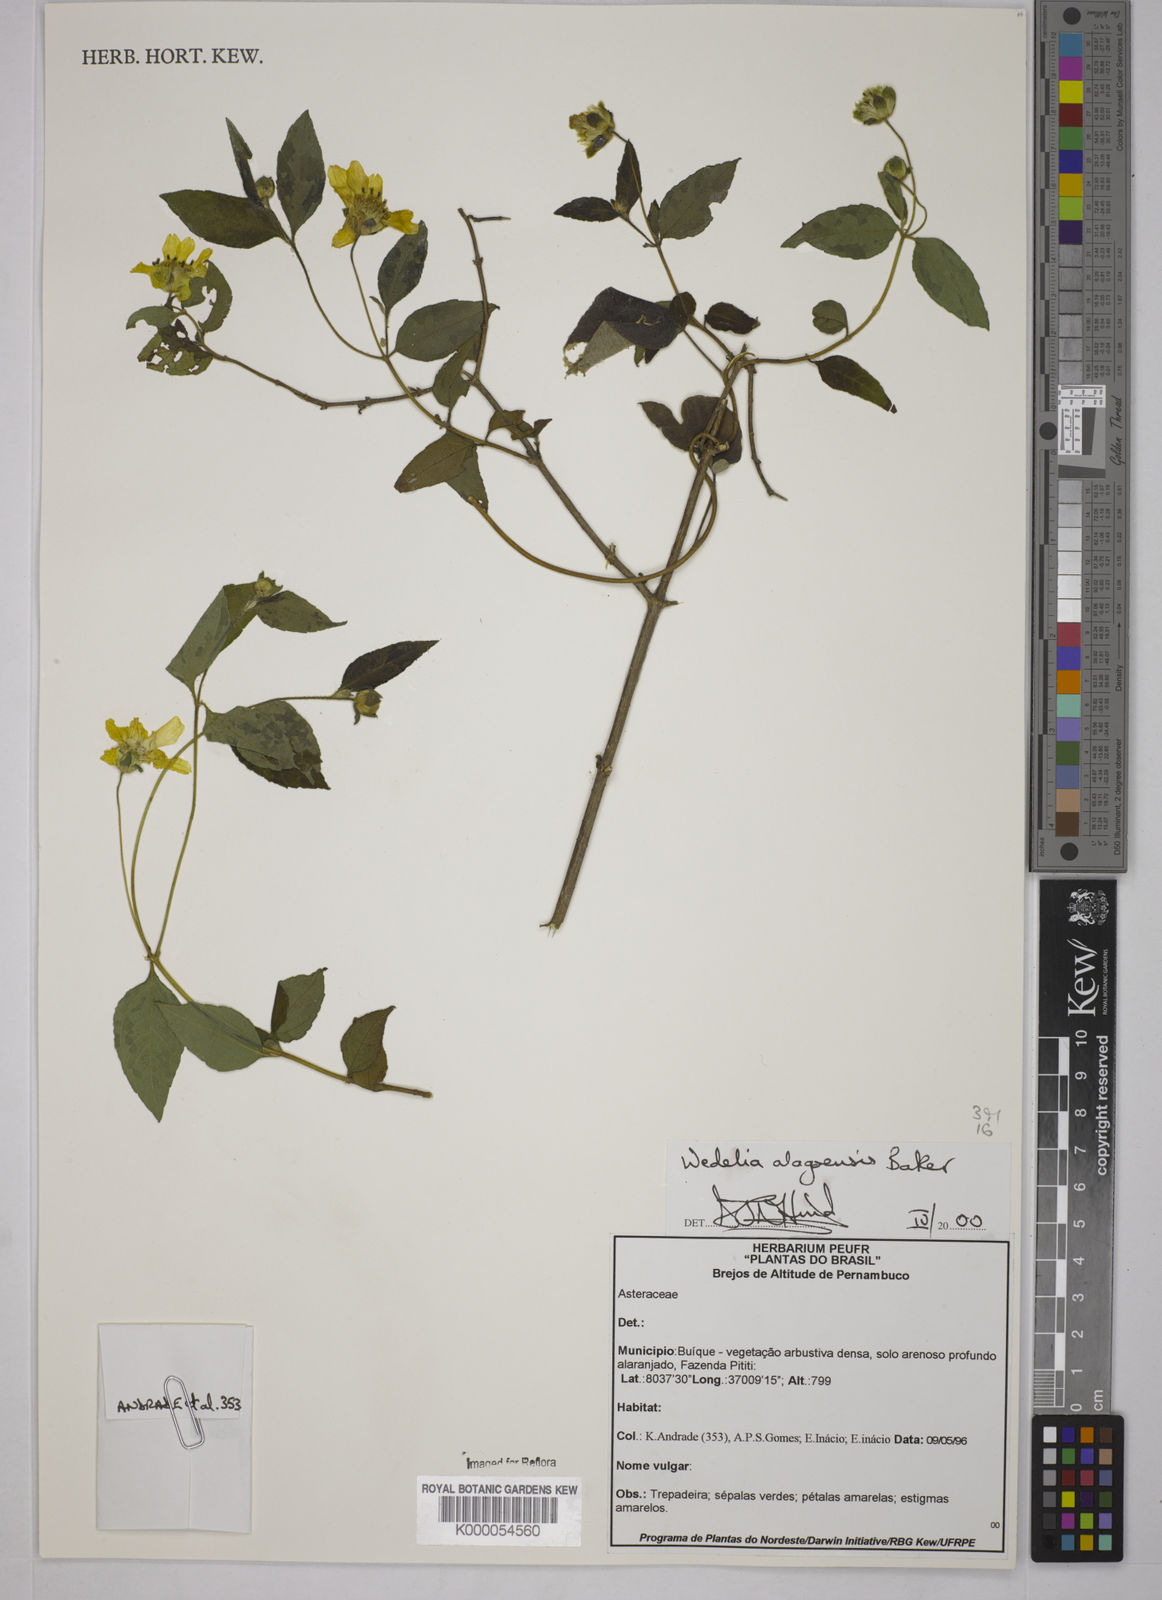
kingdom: Plantae
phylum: Tracheophyta
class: Magnoliopsida
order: Asterales
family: Asteraceae
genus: Wedelia
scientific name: Wedelia alagoensis
